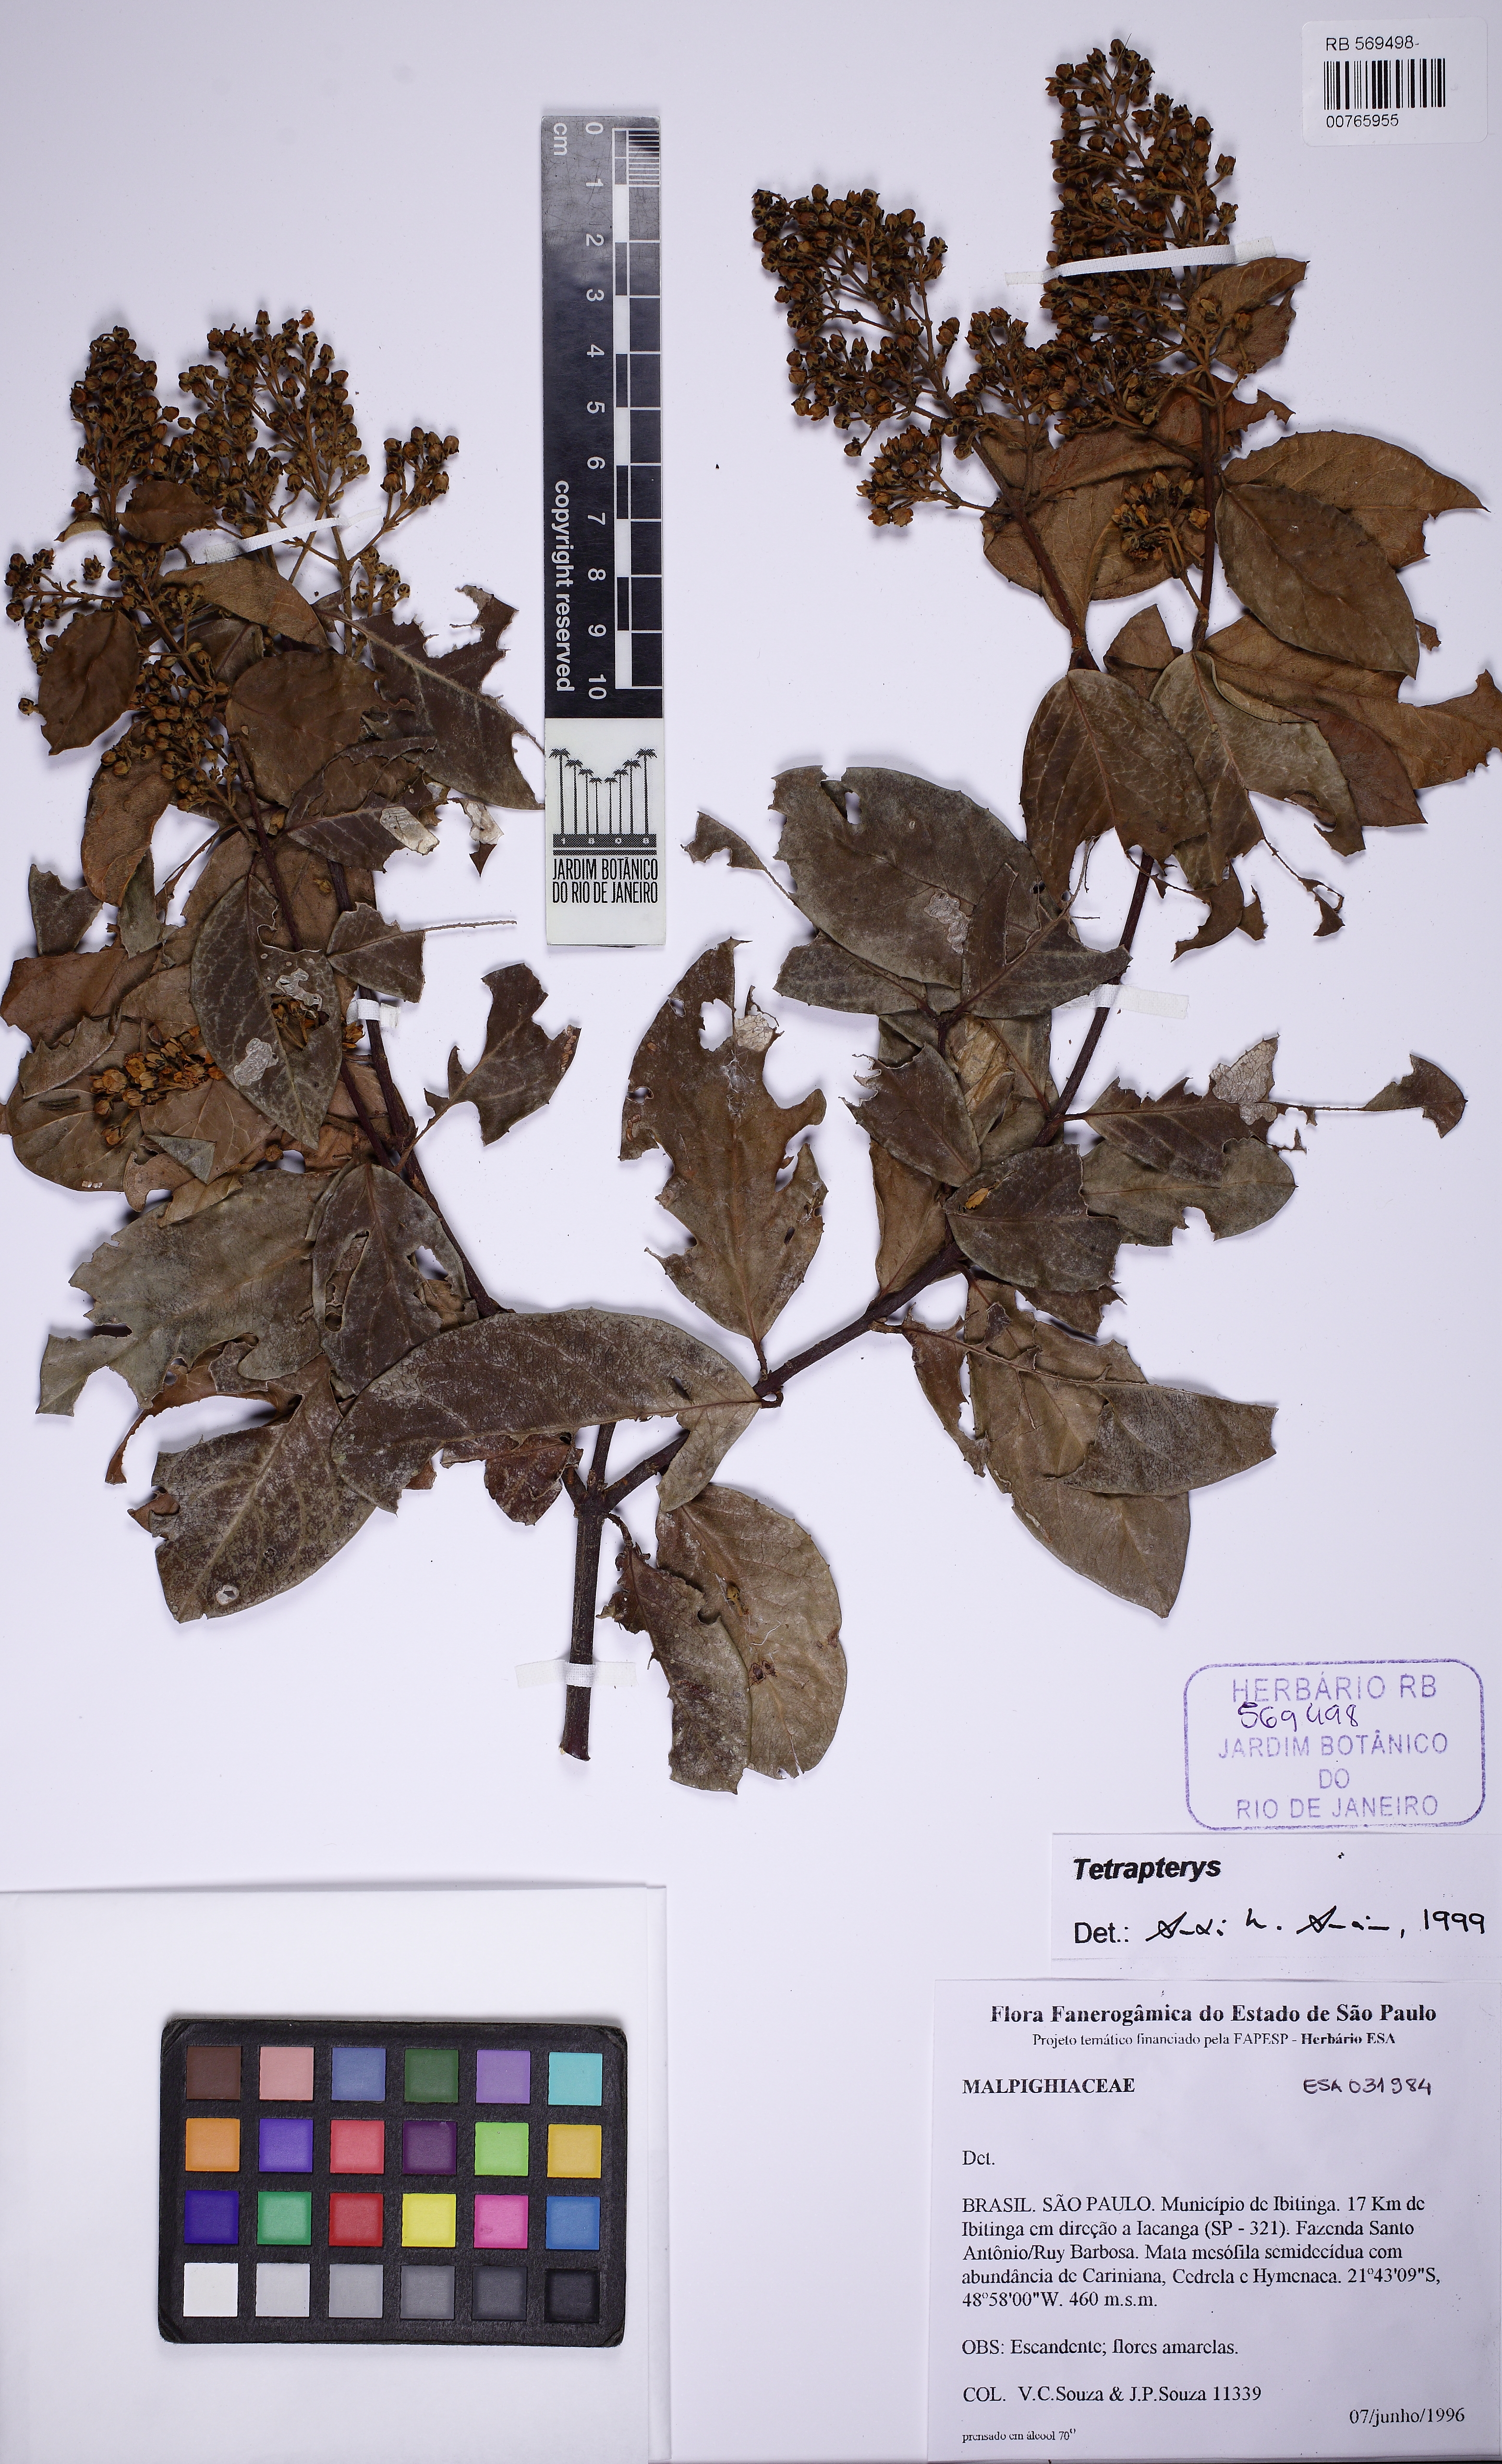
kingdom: Plantae
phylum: Tracheophyta
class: Magnoliopsida
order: Malpighiales
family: Malpighiaceae
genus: Niedenzuella
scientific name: Niedenzuella multiglandulosa
